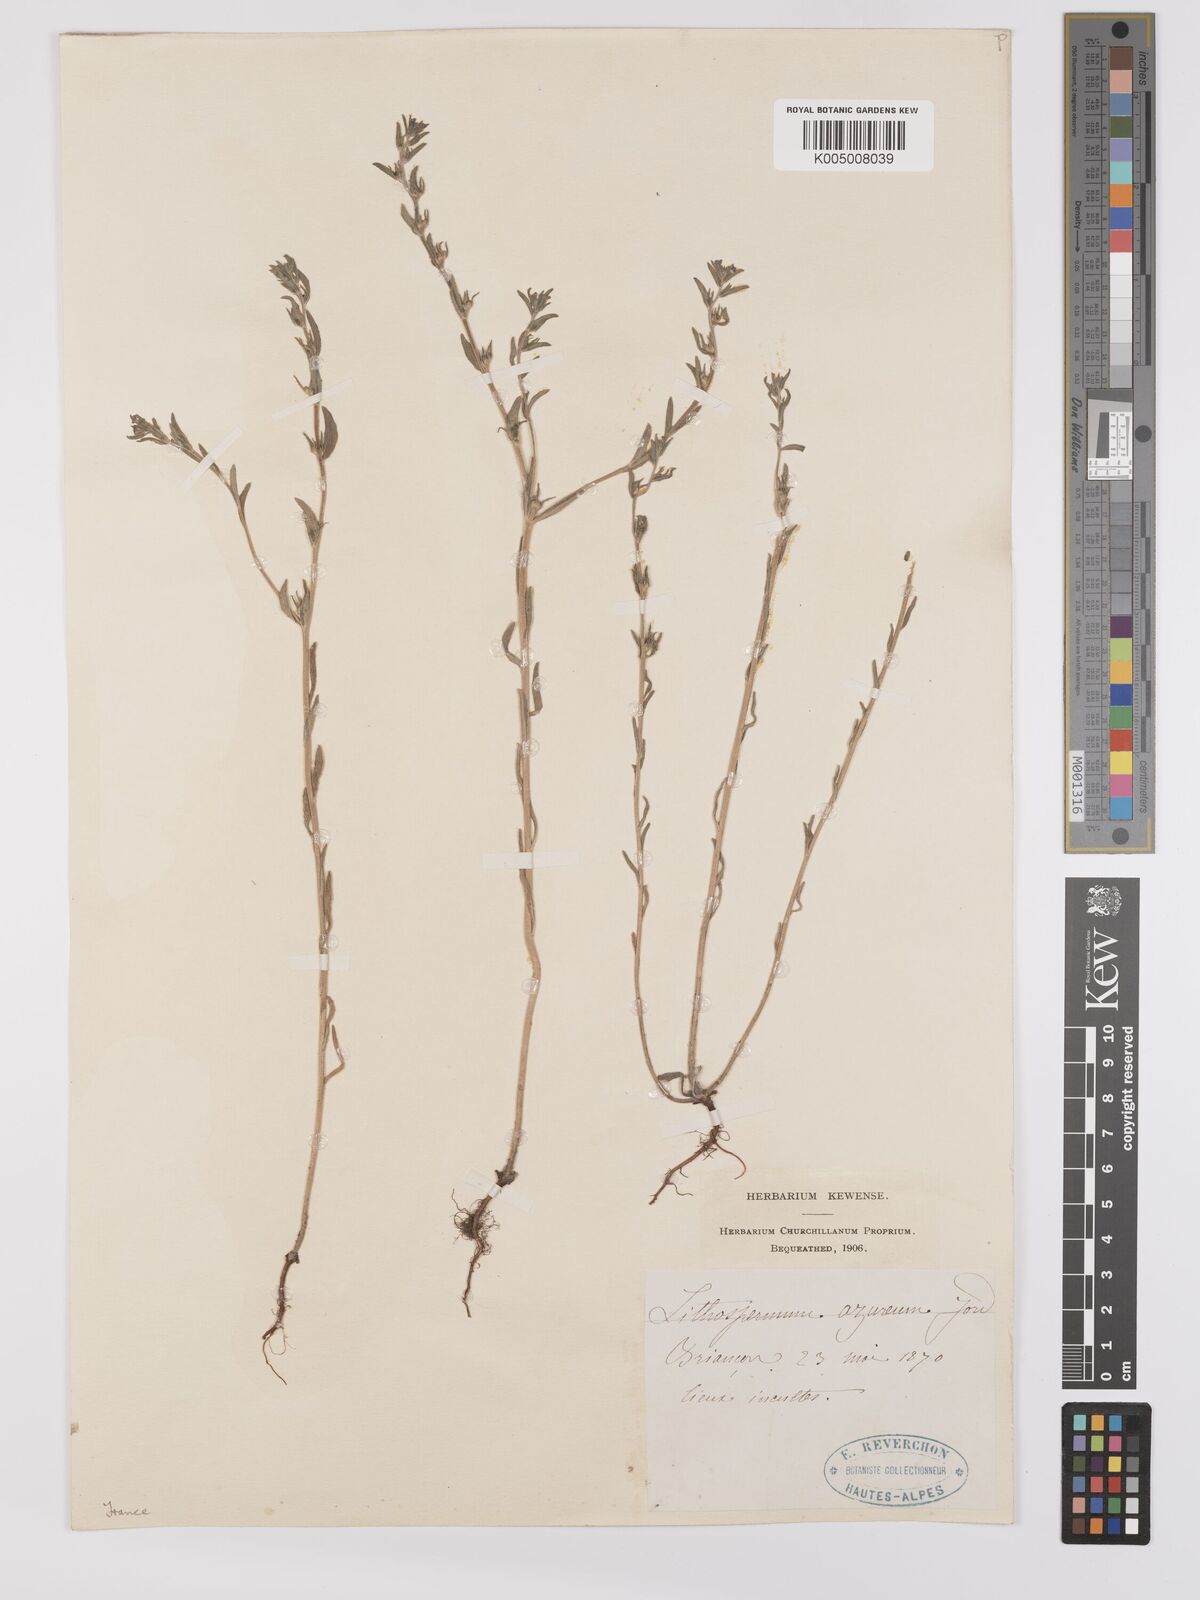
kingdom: Plantae
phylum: Tracheophyta
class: Magnoliopsida
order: Boraginales
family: Boraginaceae
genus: Buglossoides
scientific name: Buglossoides incrassata
